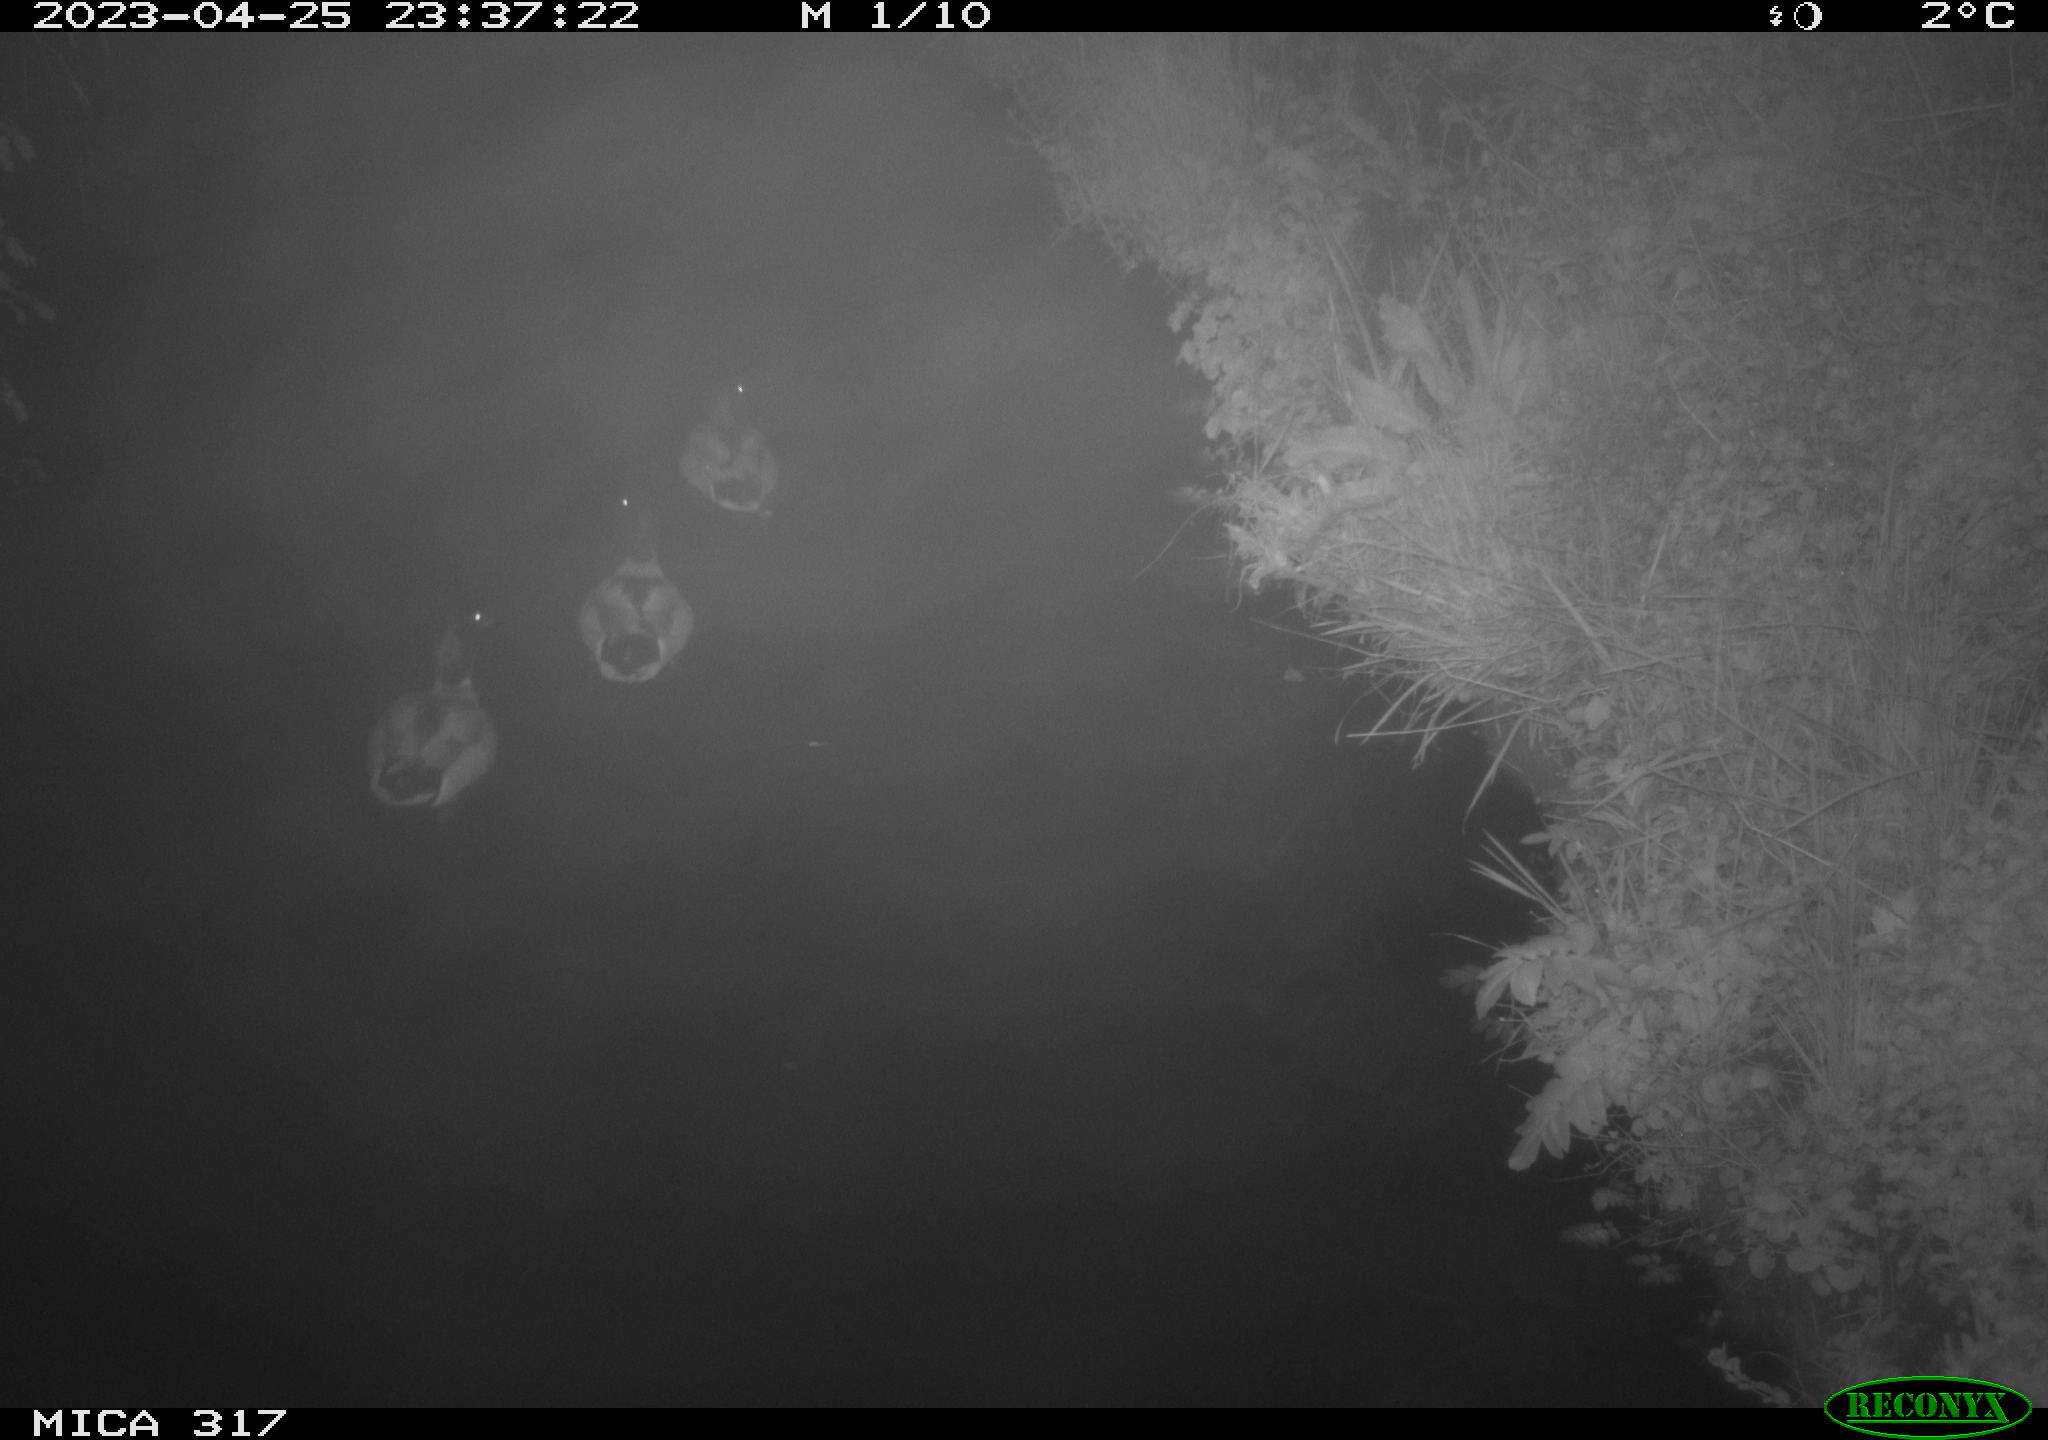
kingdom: Animalia
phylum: Chordata
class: Aves
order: Anseriformes
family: Anatidae
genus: Anas
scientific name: Anas
